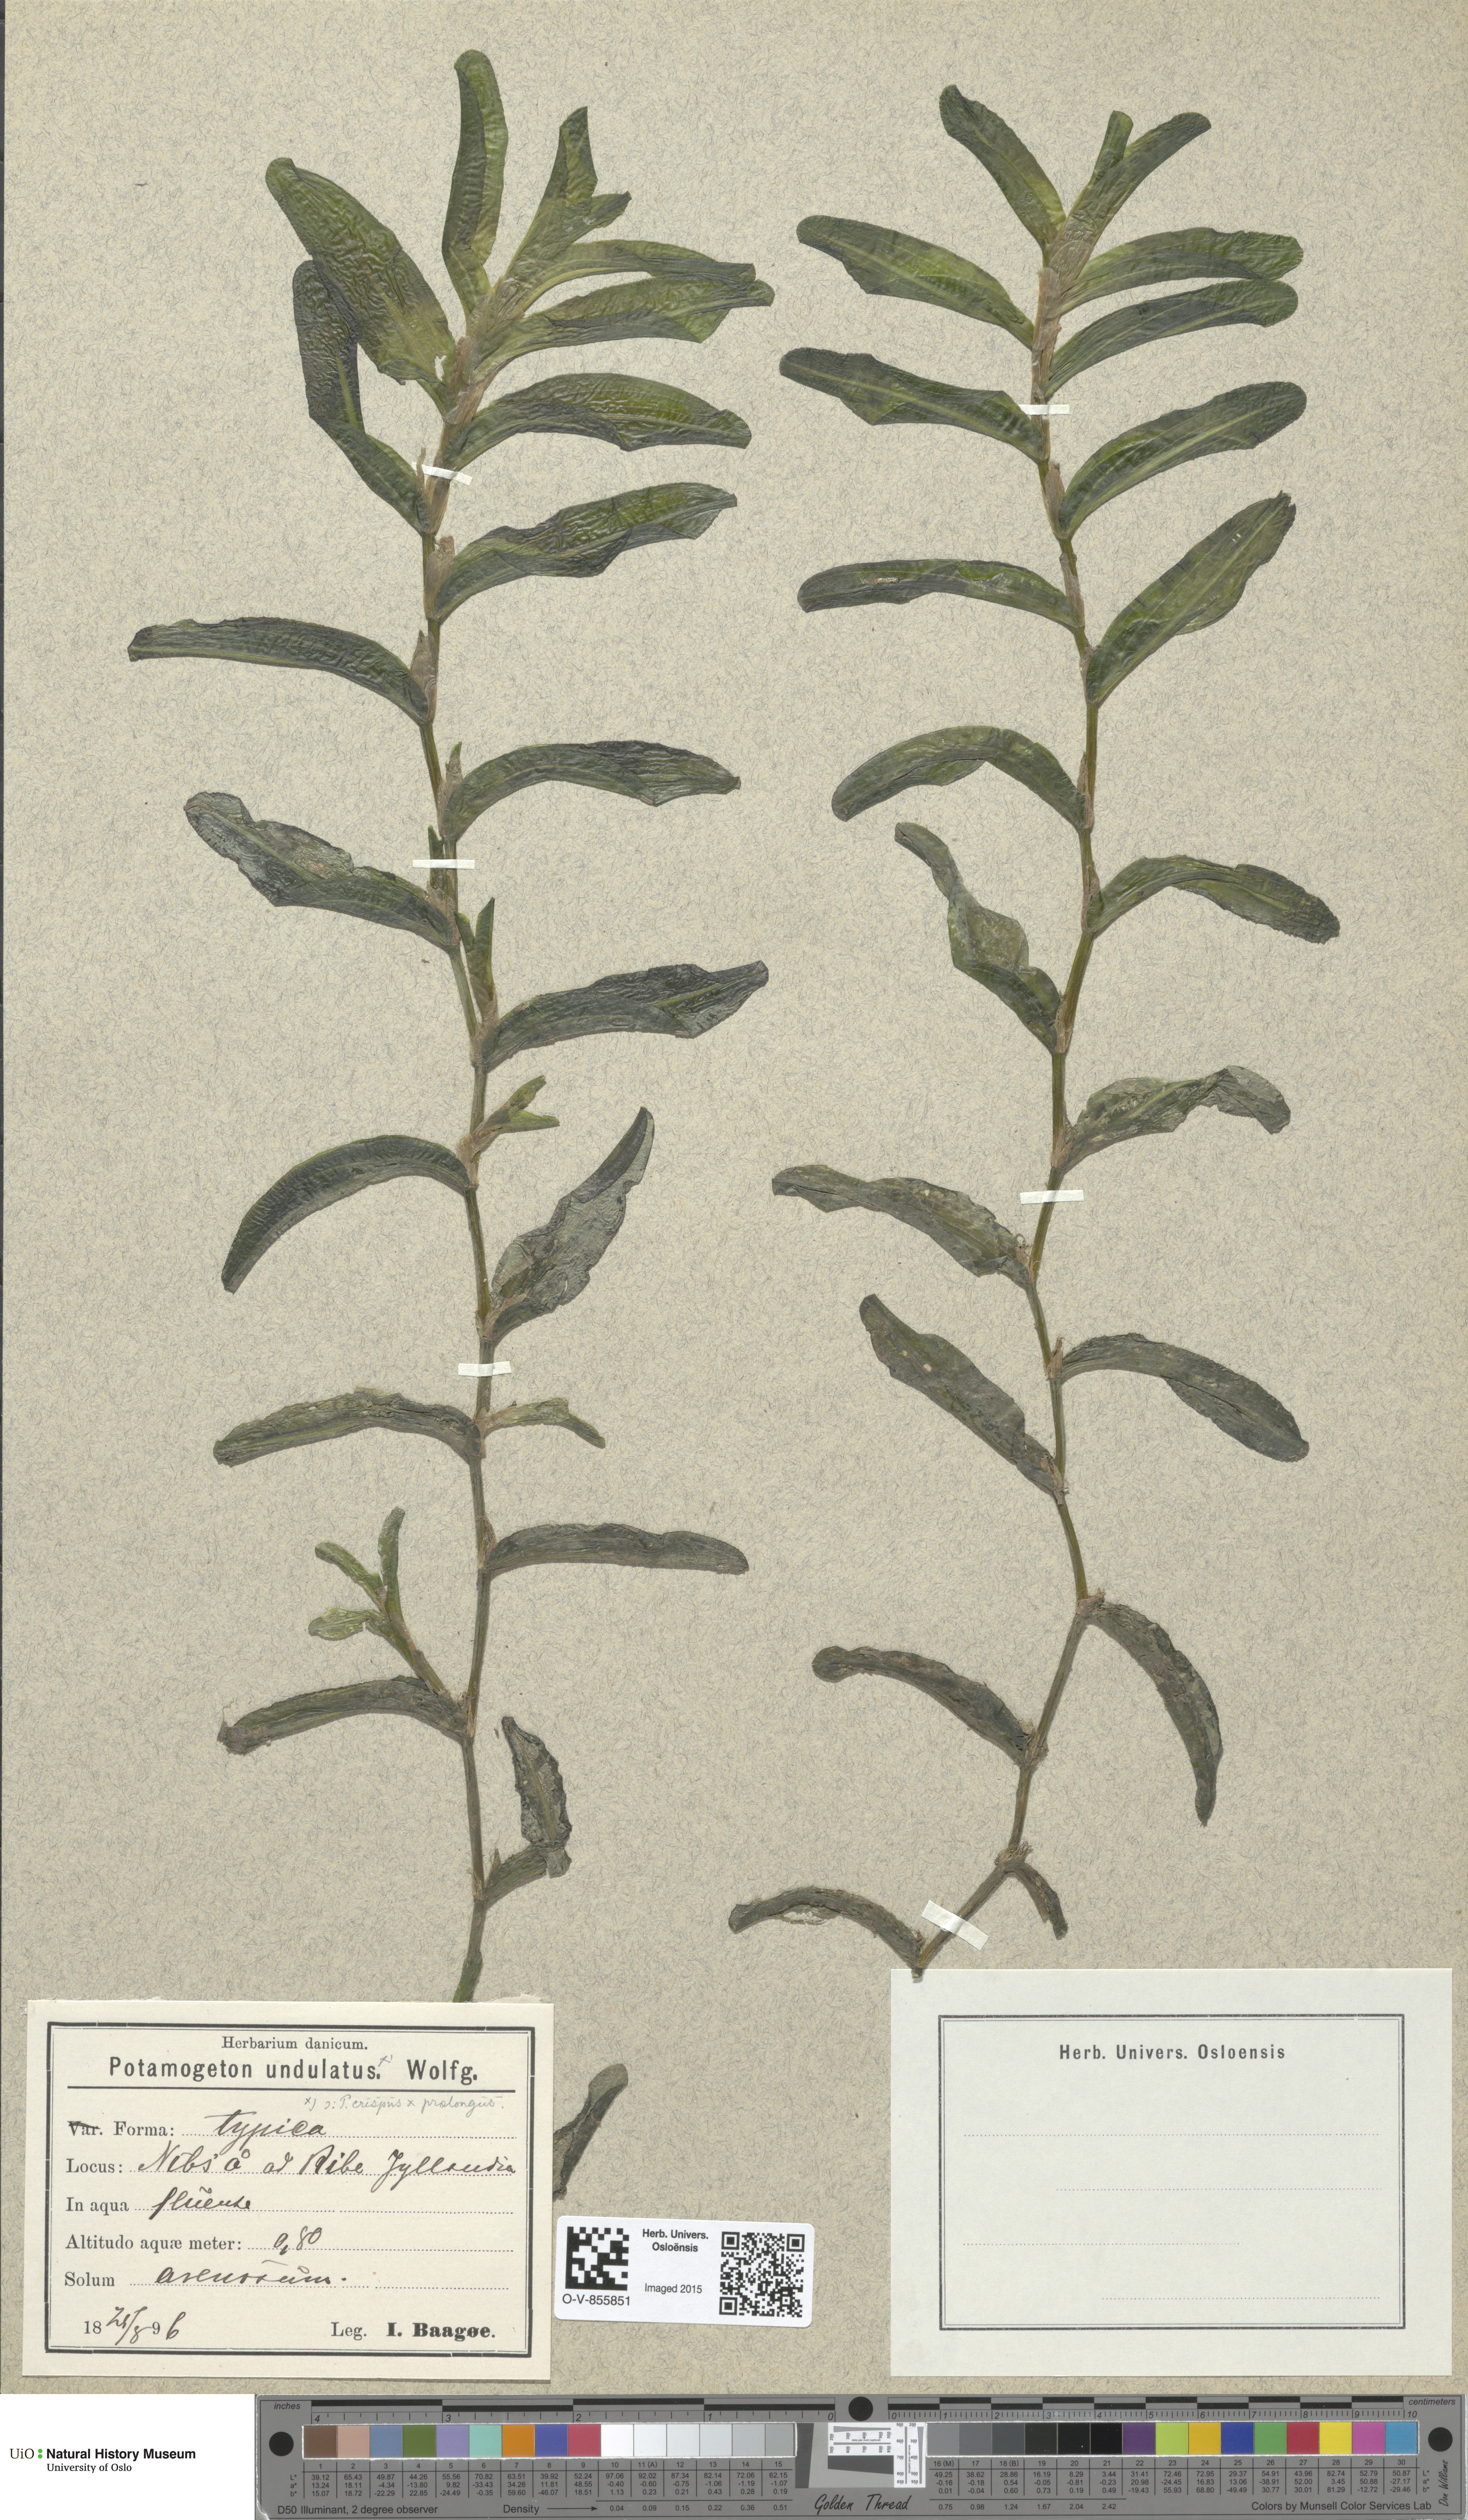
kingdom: Plantae
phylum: Tracheophyta
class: Liliopsida
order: Alismatales
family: Potamogetonaceae
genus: Potamogeton
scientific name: Potamogeton
